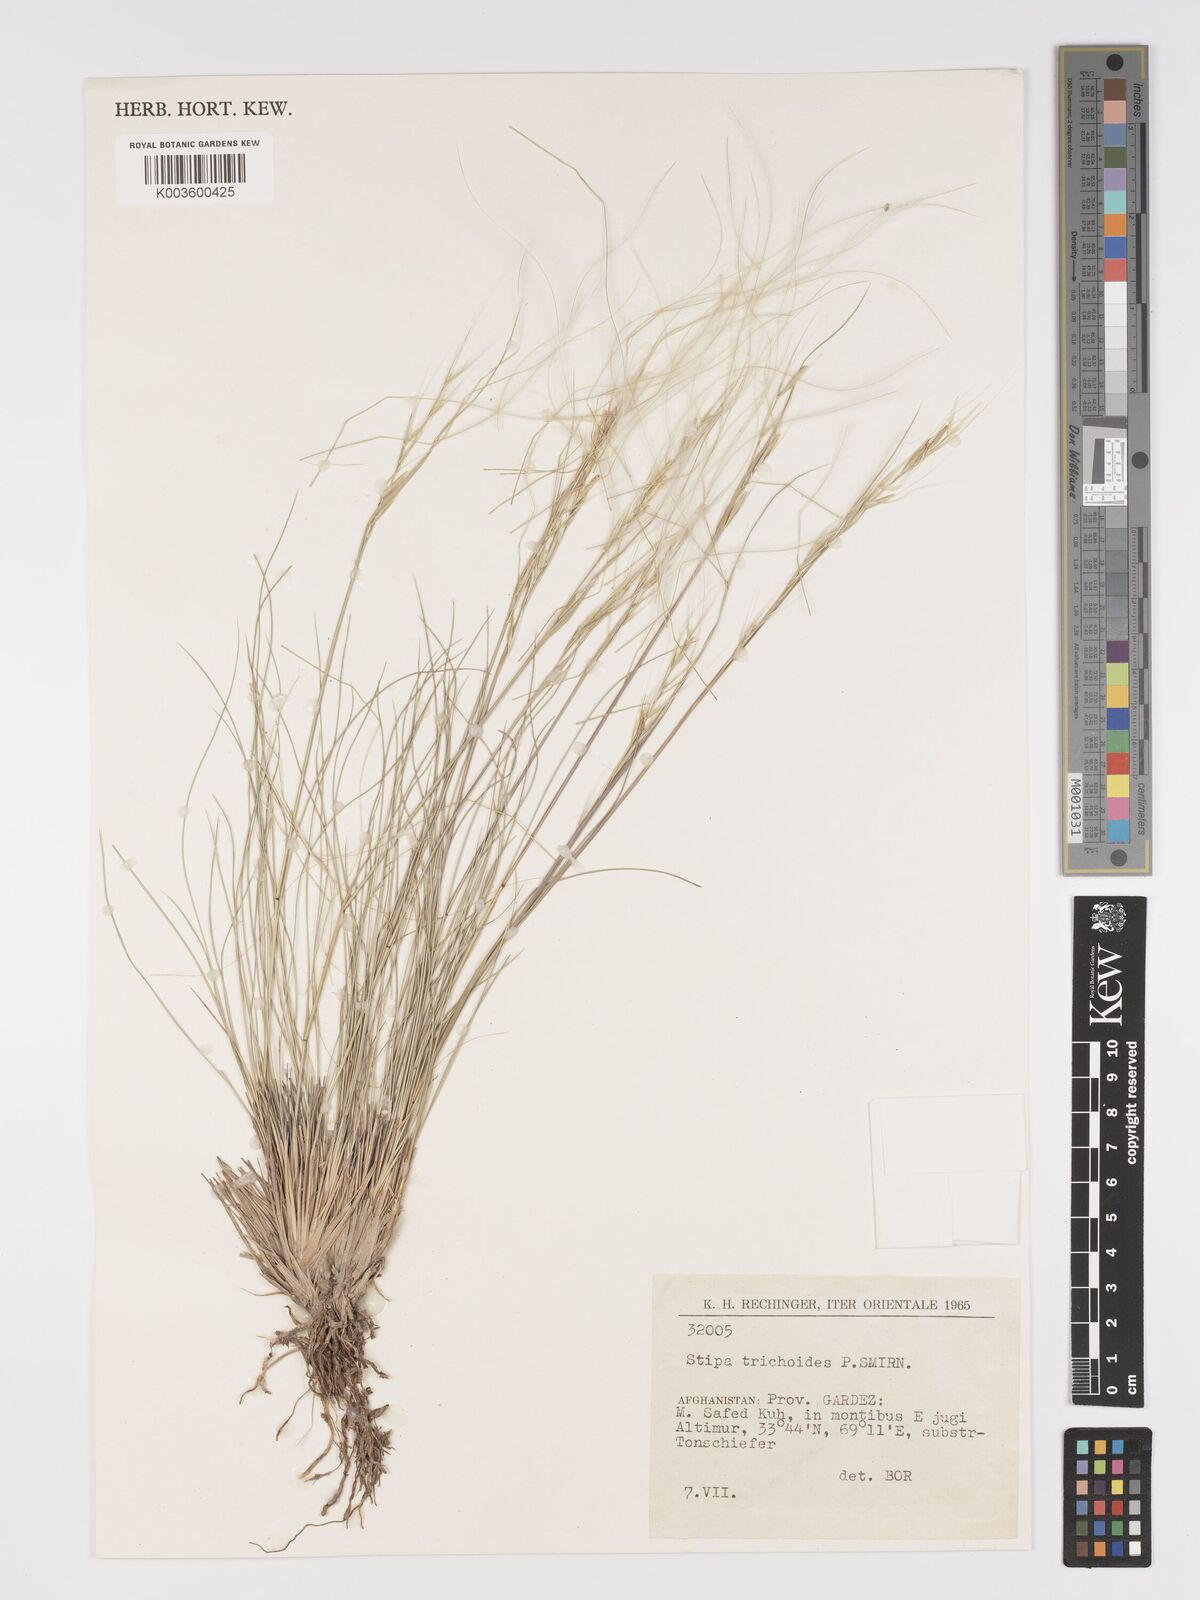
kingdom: Plantae
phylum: Tracheophyta
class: Liliopsida
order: Poales
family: Poaceae
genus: Stipa
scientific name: Stipa turkestanica
